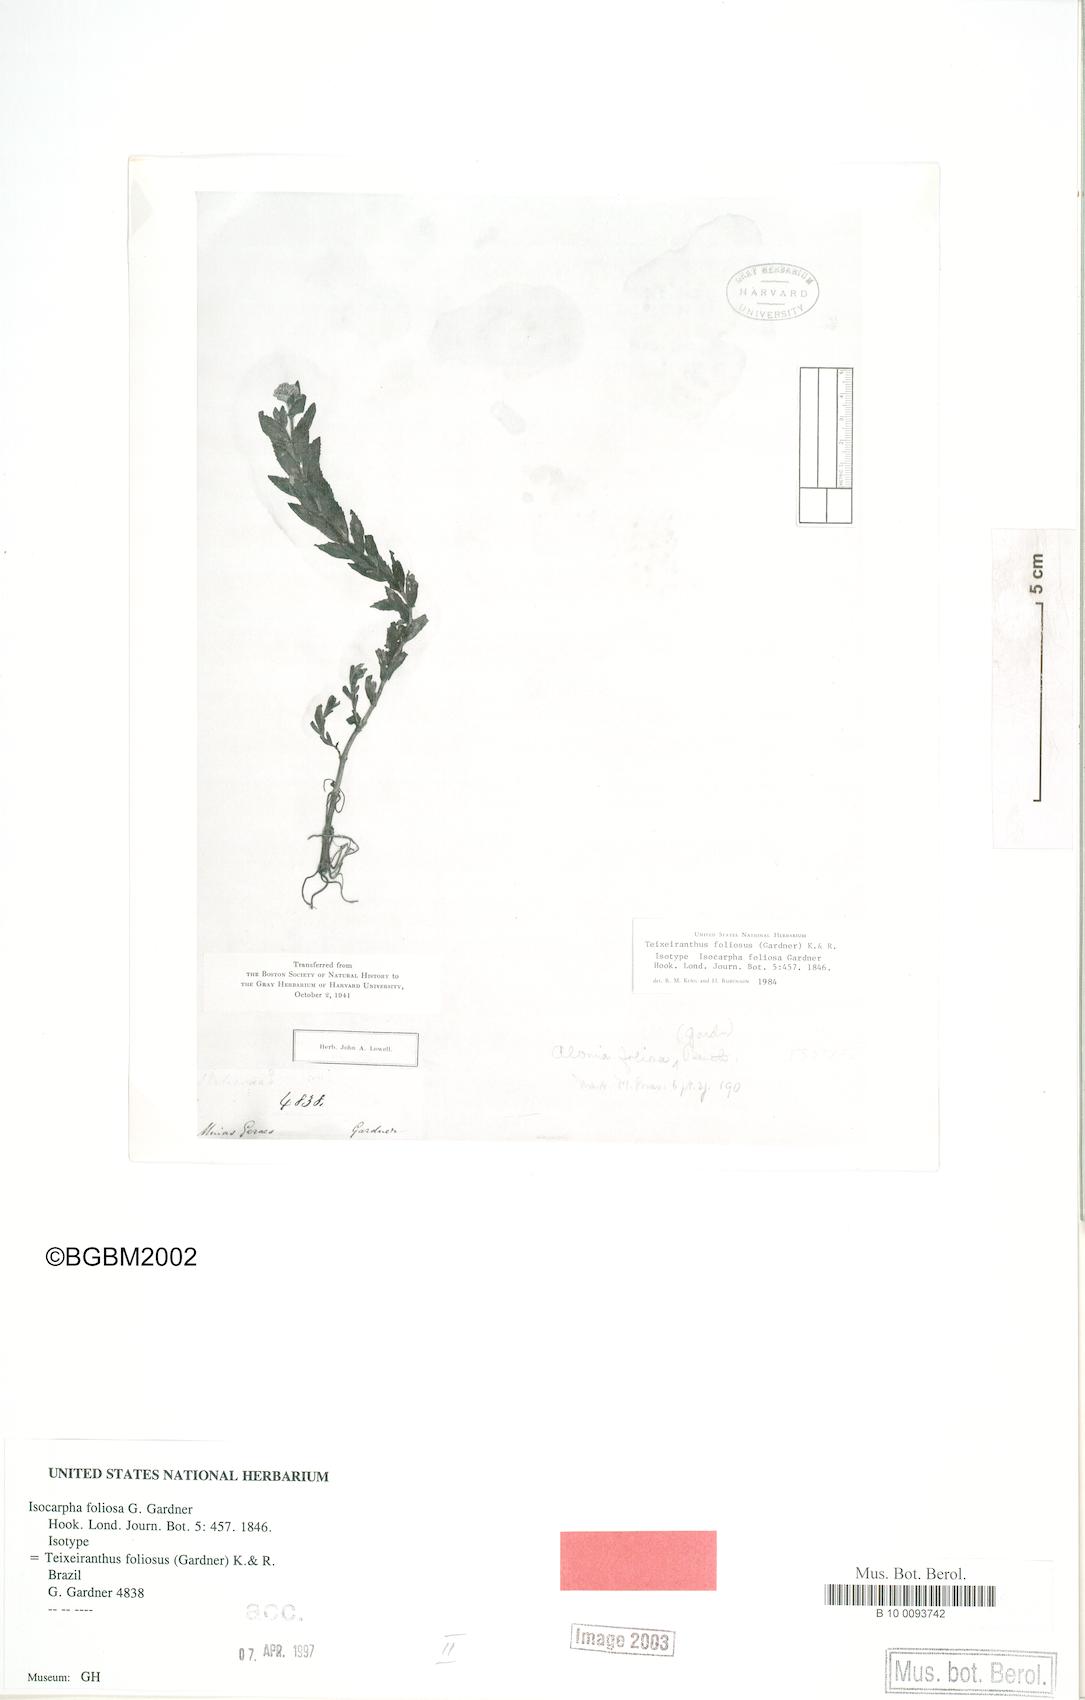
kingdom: Plantae
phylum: Tracheophyta
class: Magnoliopsida
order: Asterales
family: Asteraceae
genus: Teixeiranthus
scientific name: Teixeiranthus foliosus
